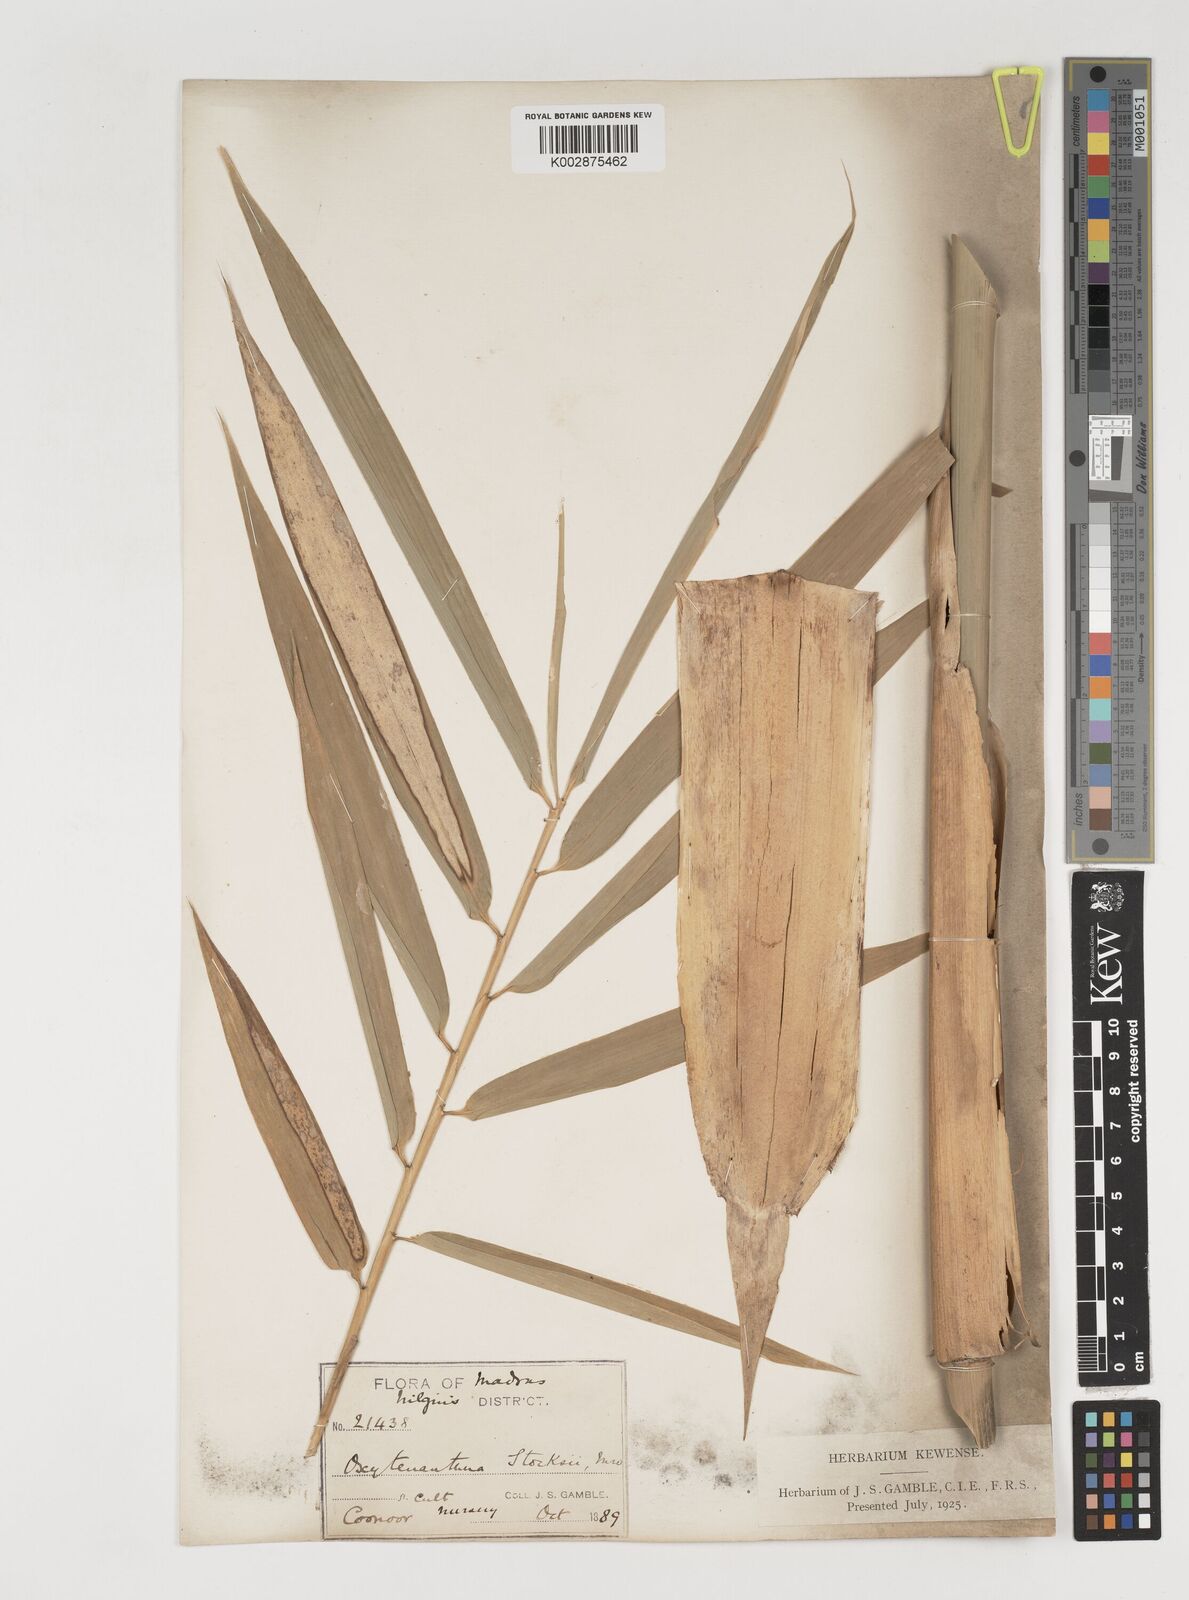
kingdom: Plantae
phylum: Tracheophyta
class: Liliopsida
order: Poales
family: Poaceae
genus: Pseudoxytenanthera
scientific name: Pseudoxytenanthera stocksii
